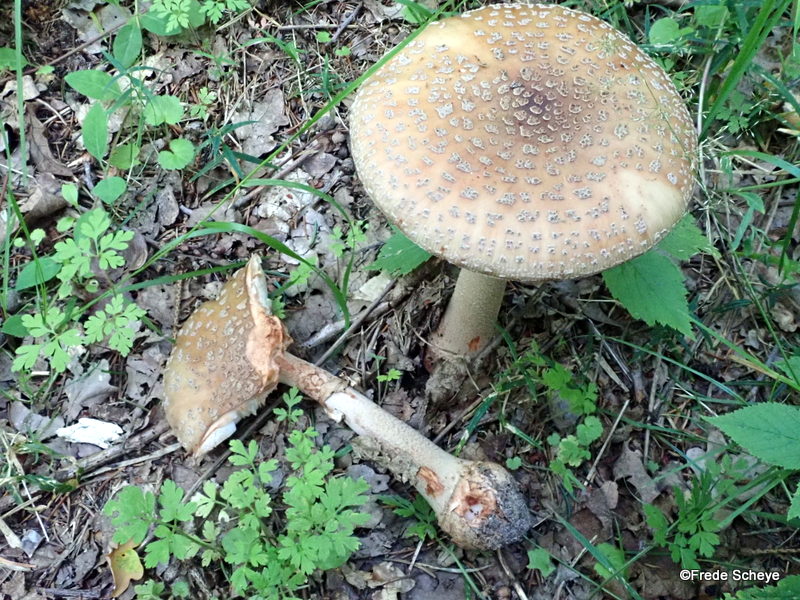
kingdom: Fungi
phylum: Basidiomycota
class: Agaricomycetes
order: Agaricales
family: Amanitaceae
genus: Amanita
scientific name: Amanita rubescens
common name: rødmende fluesvamp
